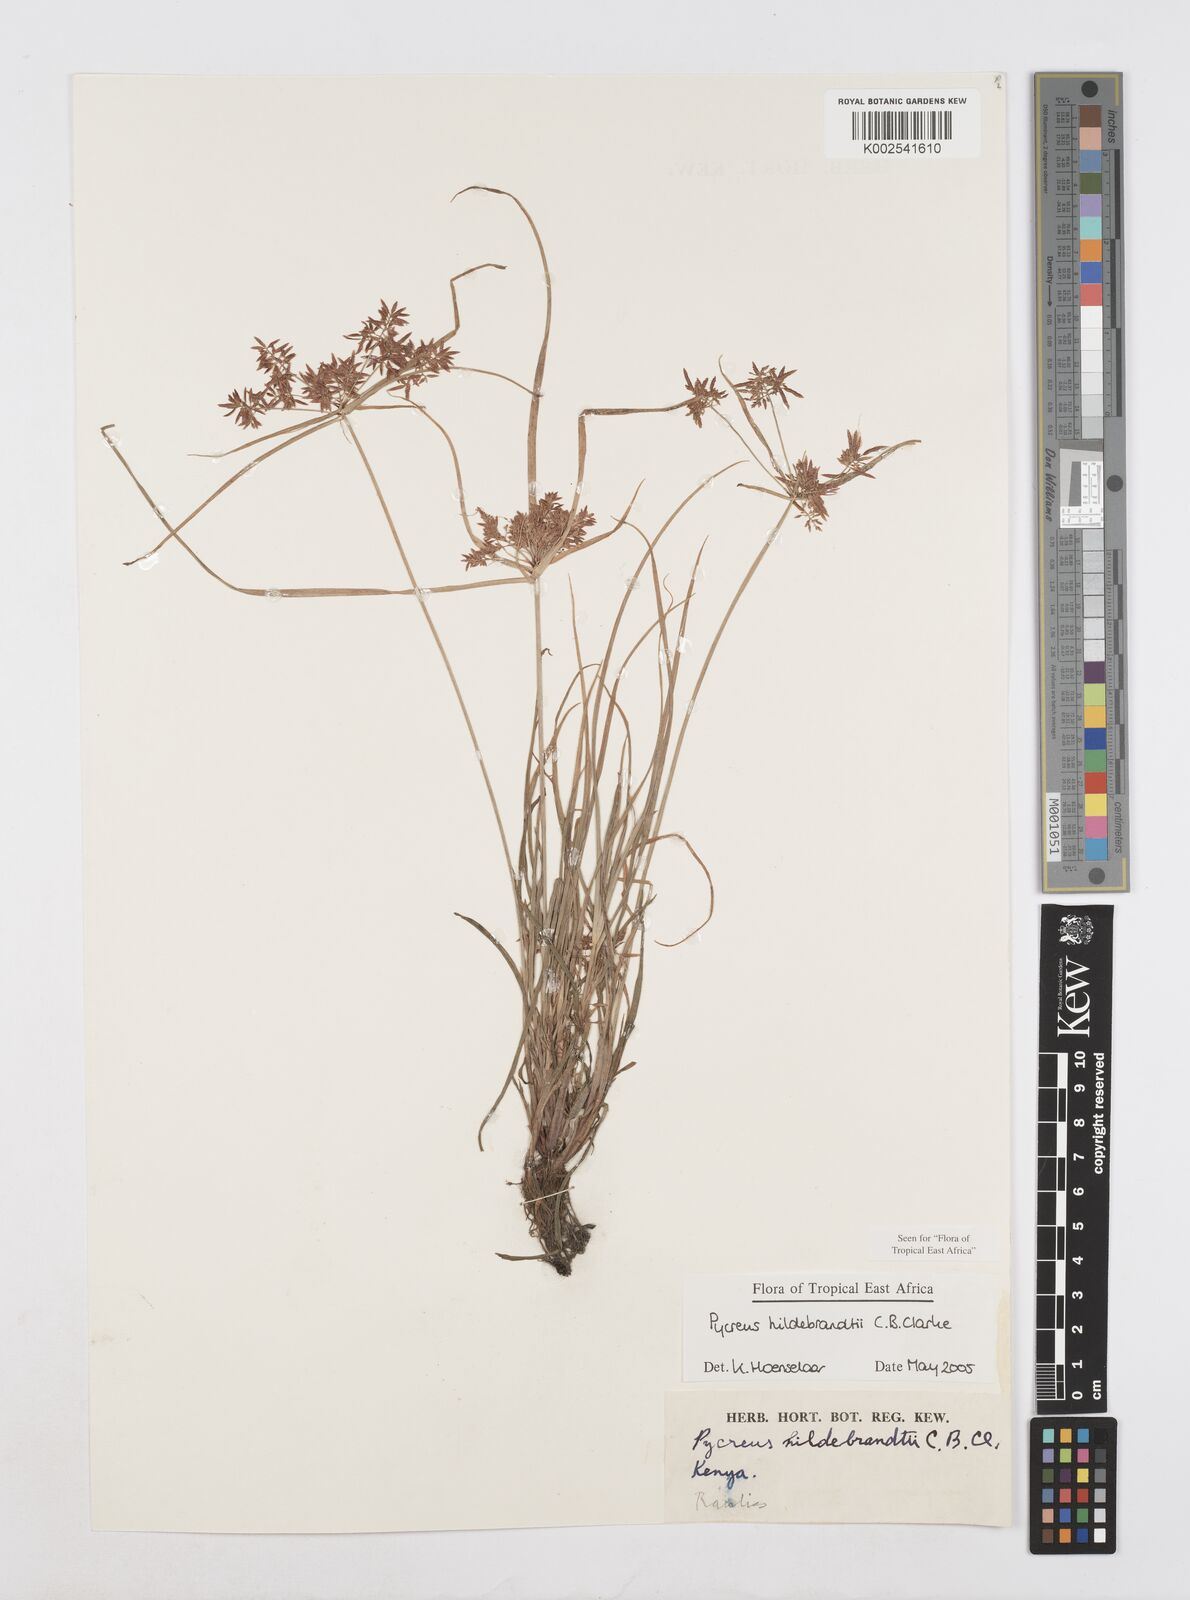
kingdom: Plantae
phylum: Tracheophyta
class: Liliopsida
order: Poales
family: Cyperaceae
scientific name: Cyperaceae
